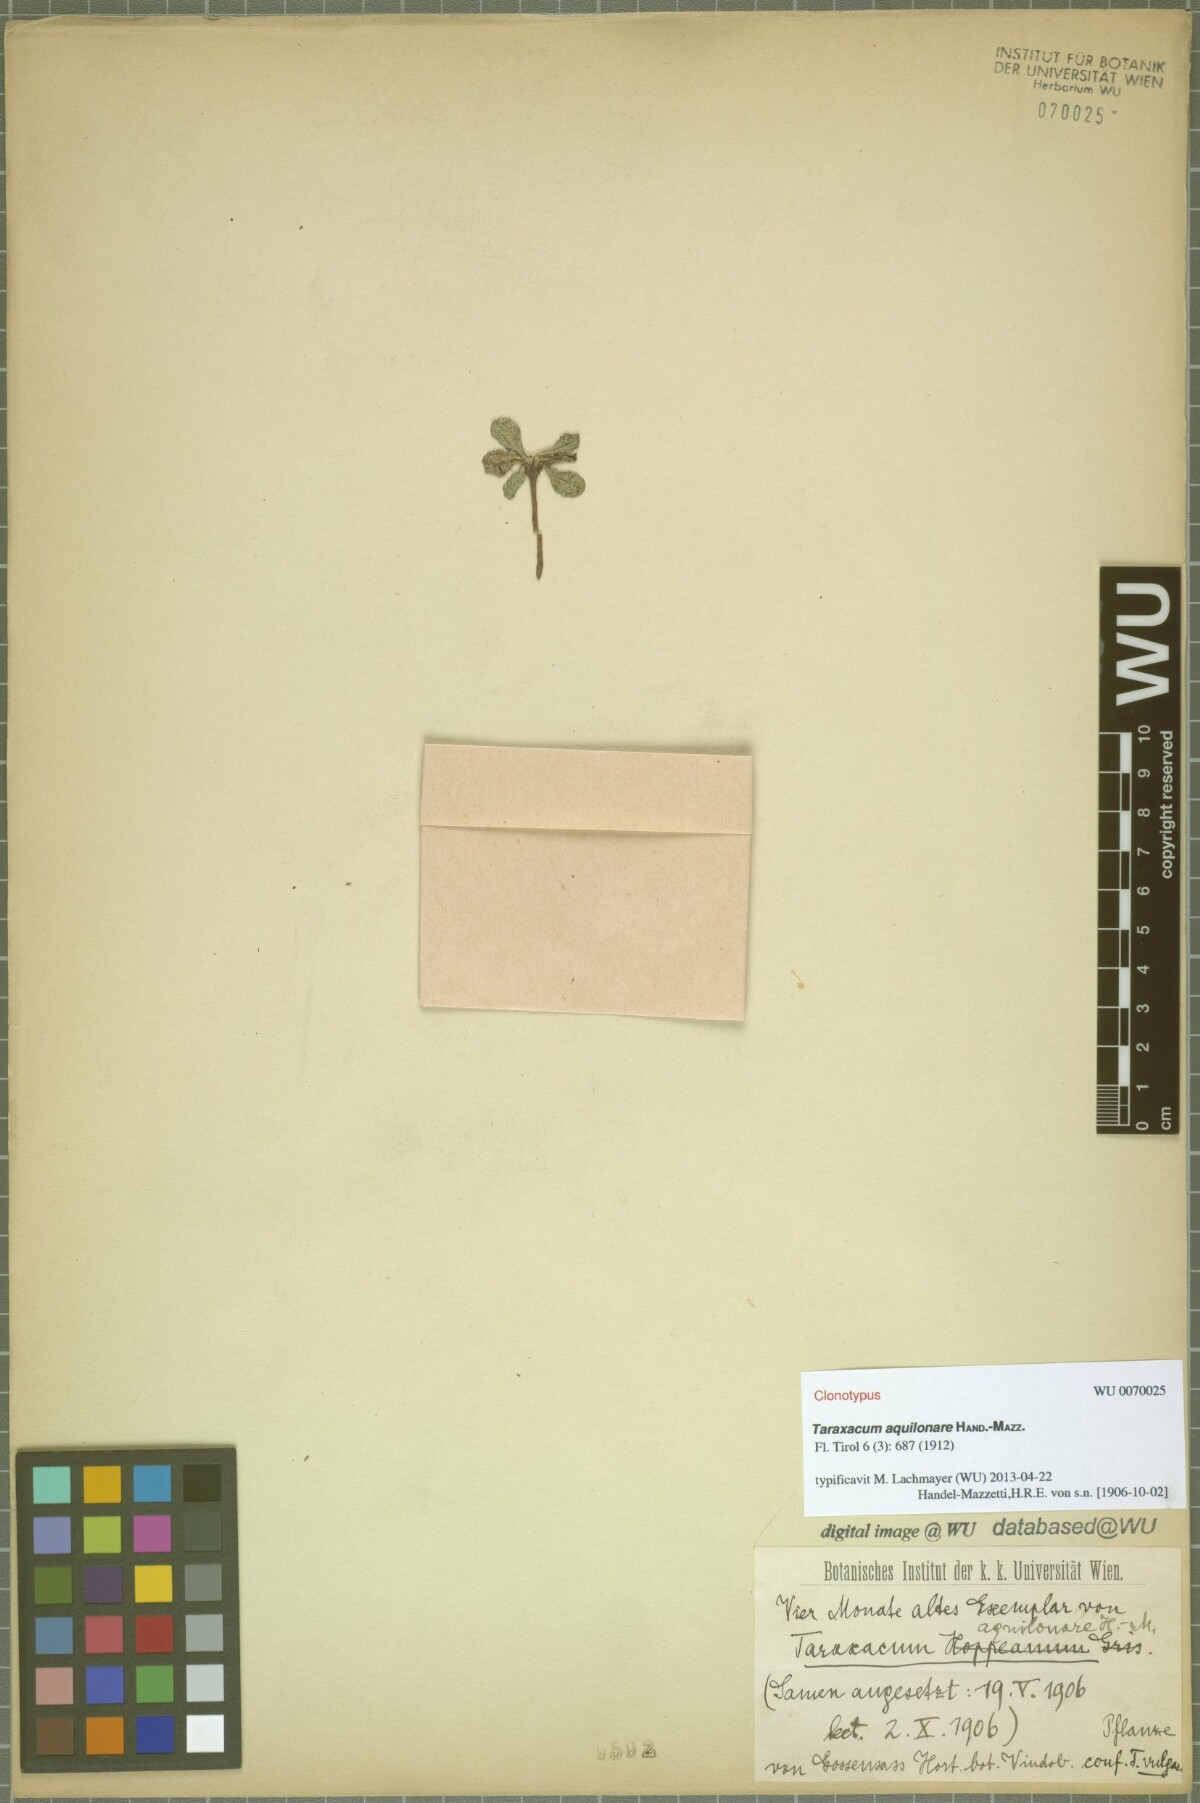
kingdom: Plantae
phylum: Tracheophyta
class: Magnoliopsida
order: Asterales
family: Asteraceae
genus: Taraxacum
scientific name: Taraxacum aquilonare
